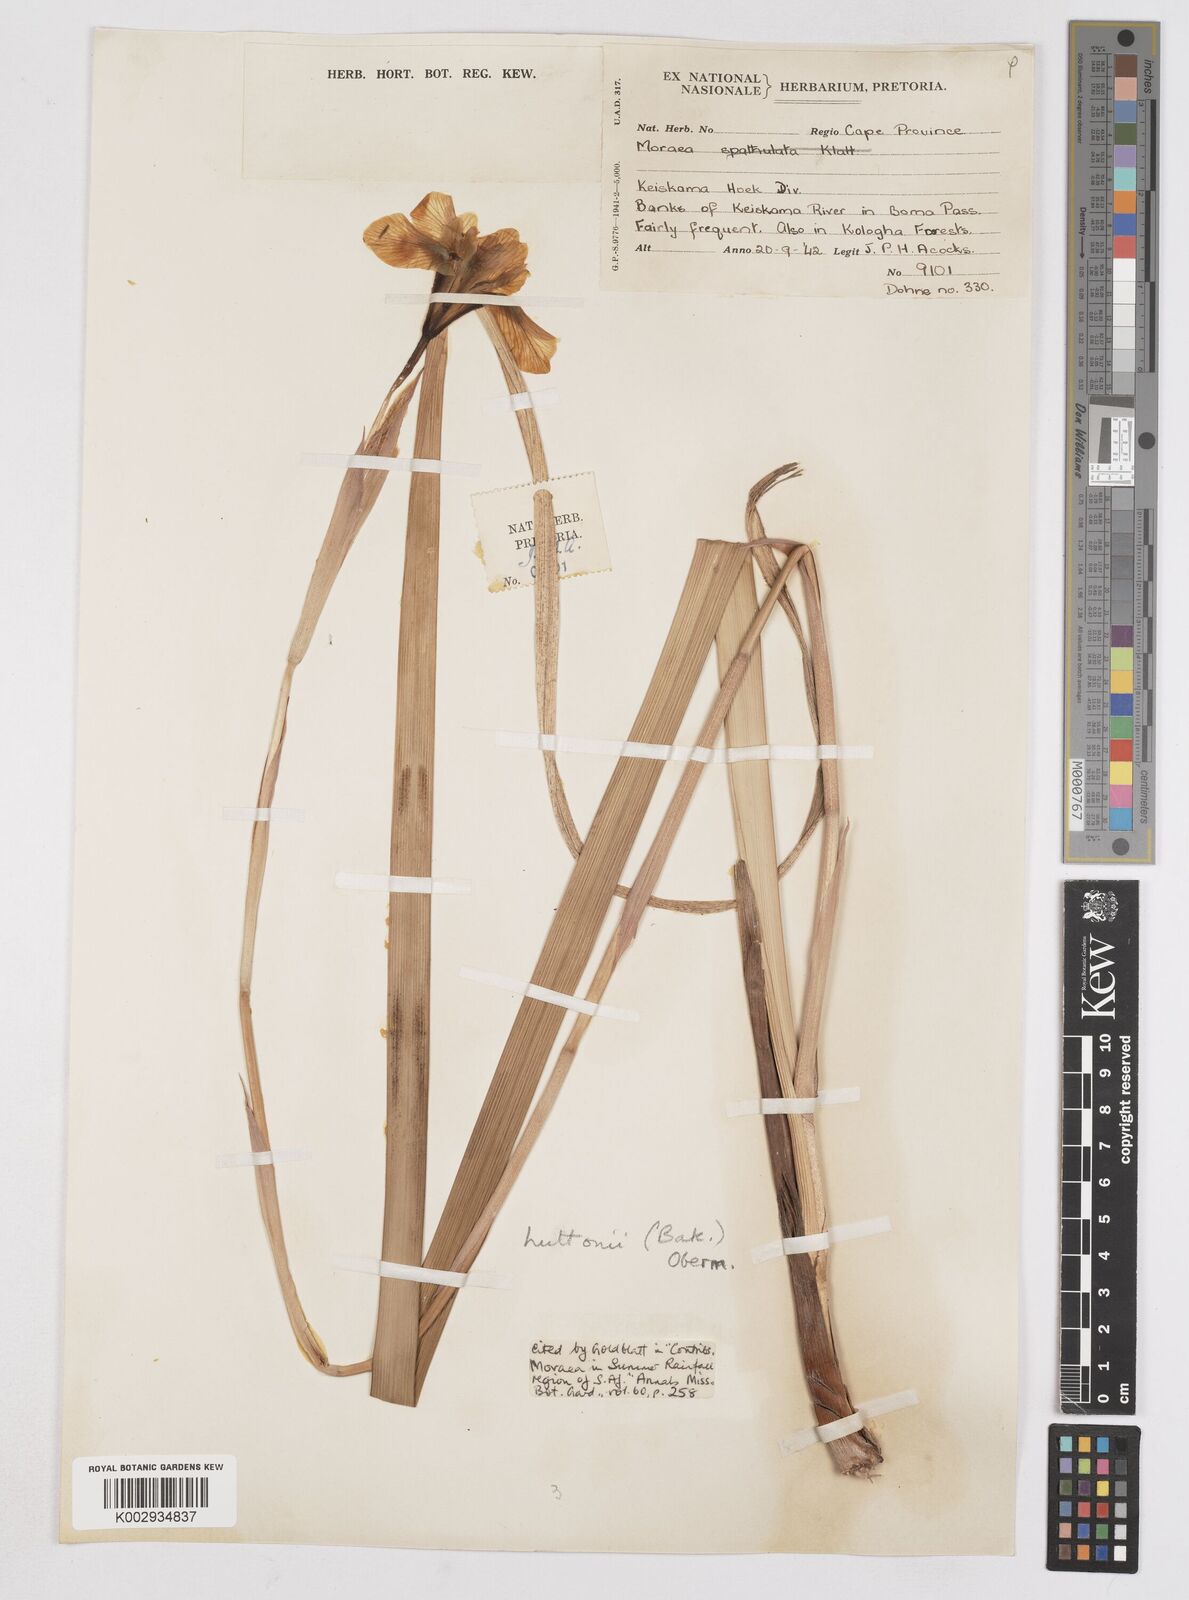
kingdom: Plantae
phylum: Tracheophyta
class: Liliopsida
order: Asparagales
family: Iridaceae
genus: Moraea
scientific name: Moraea huttonii
